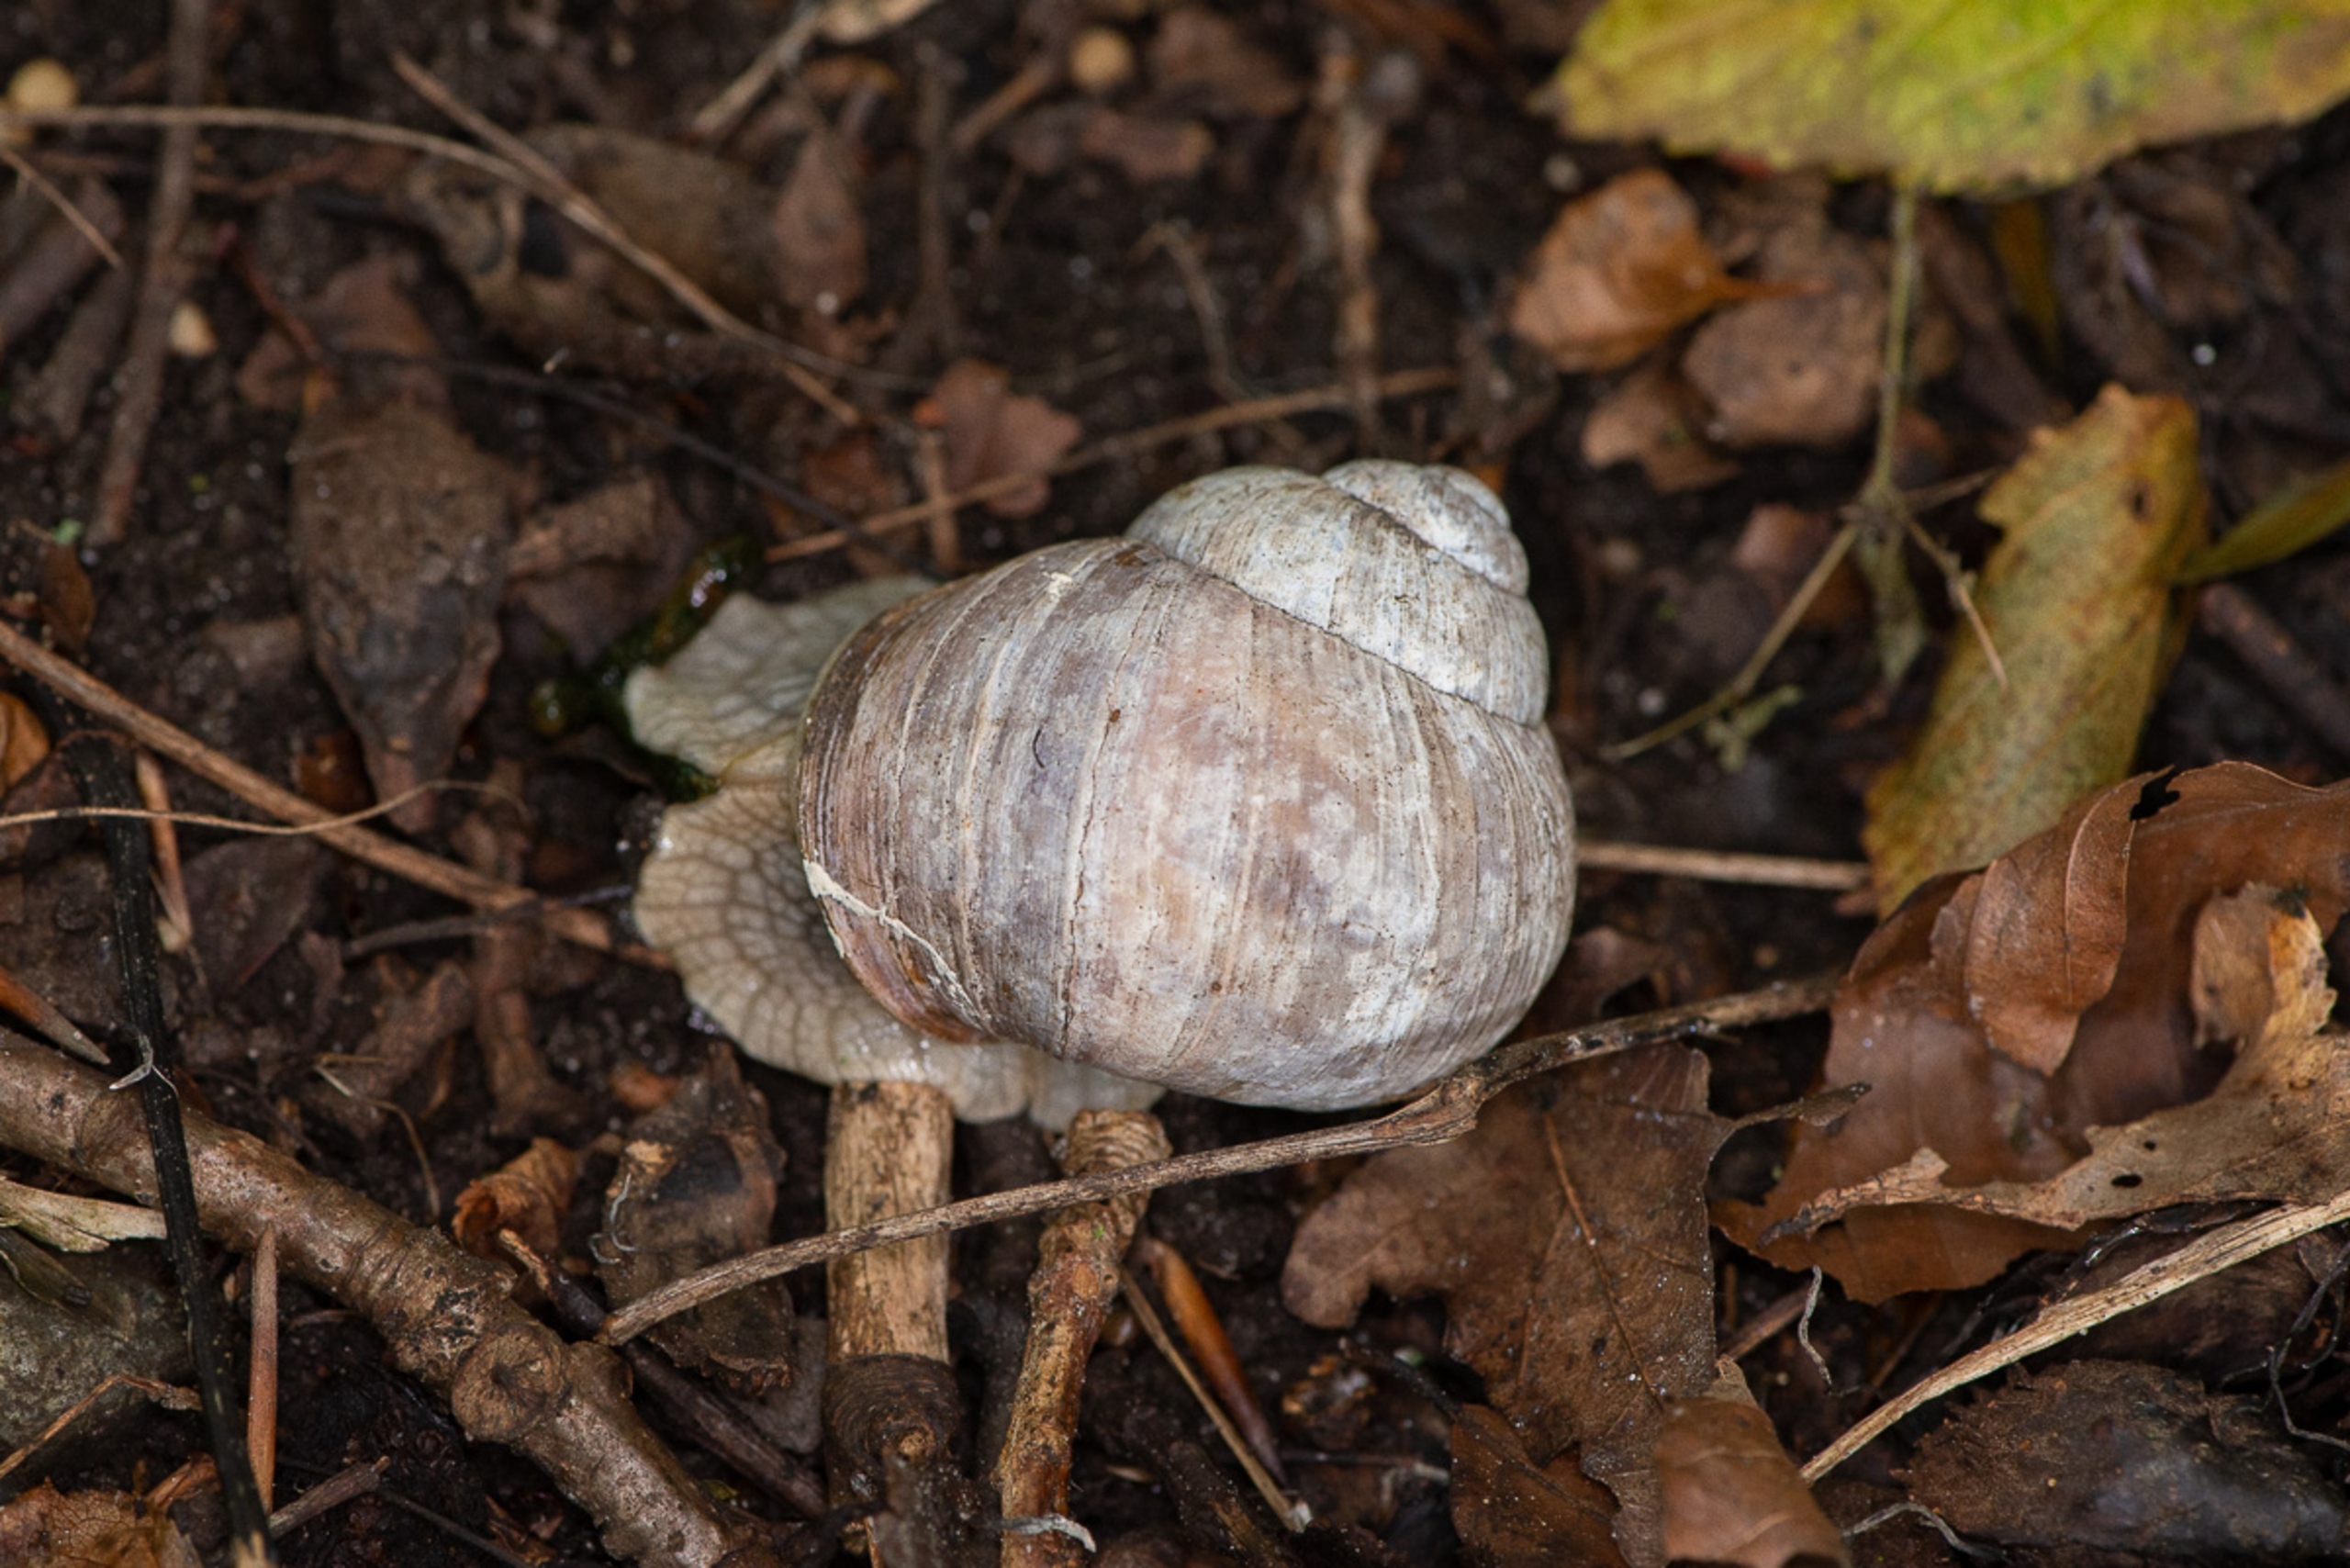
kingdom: Animalia
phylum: Mollusca
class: Gastropoda
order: Stylommatophora
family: Helicidae
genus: Helix
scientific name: Helix pomatia
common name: Vinbjergsnegl
